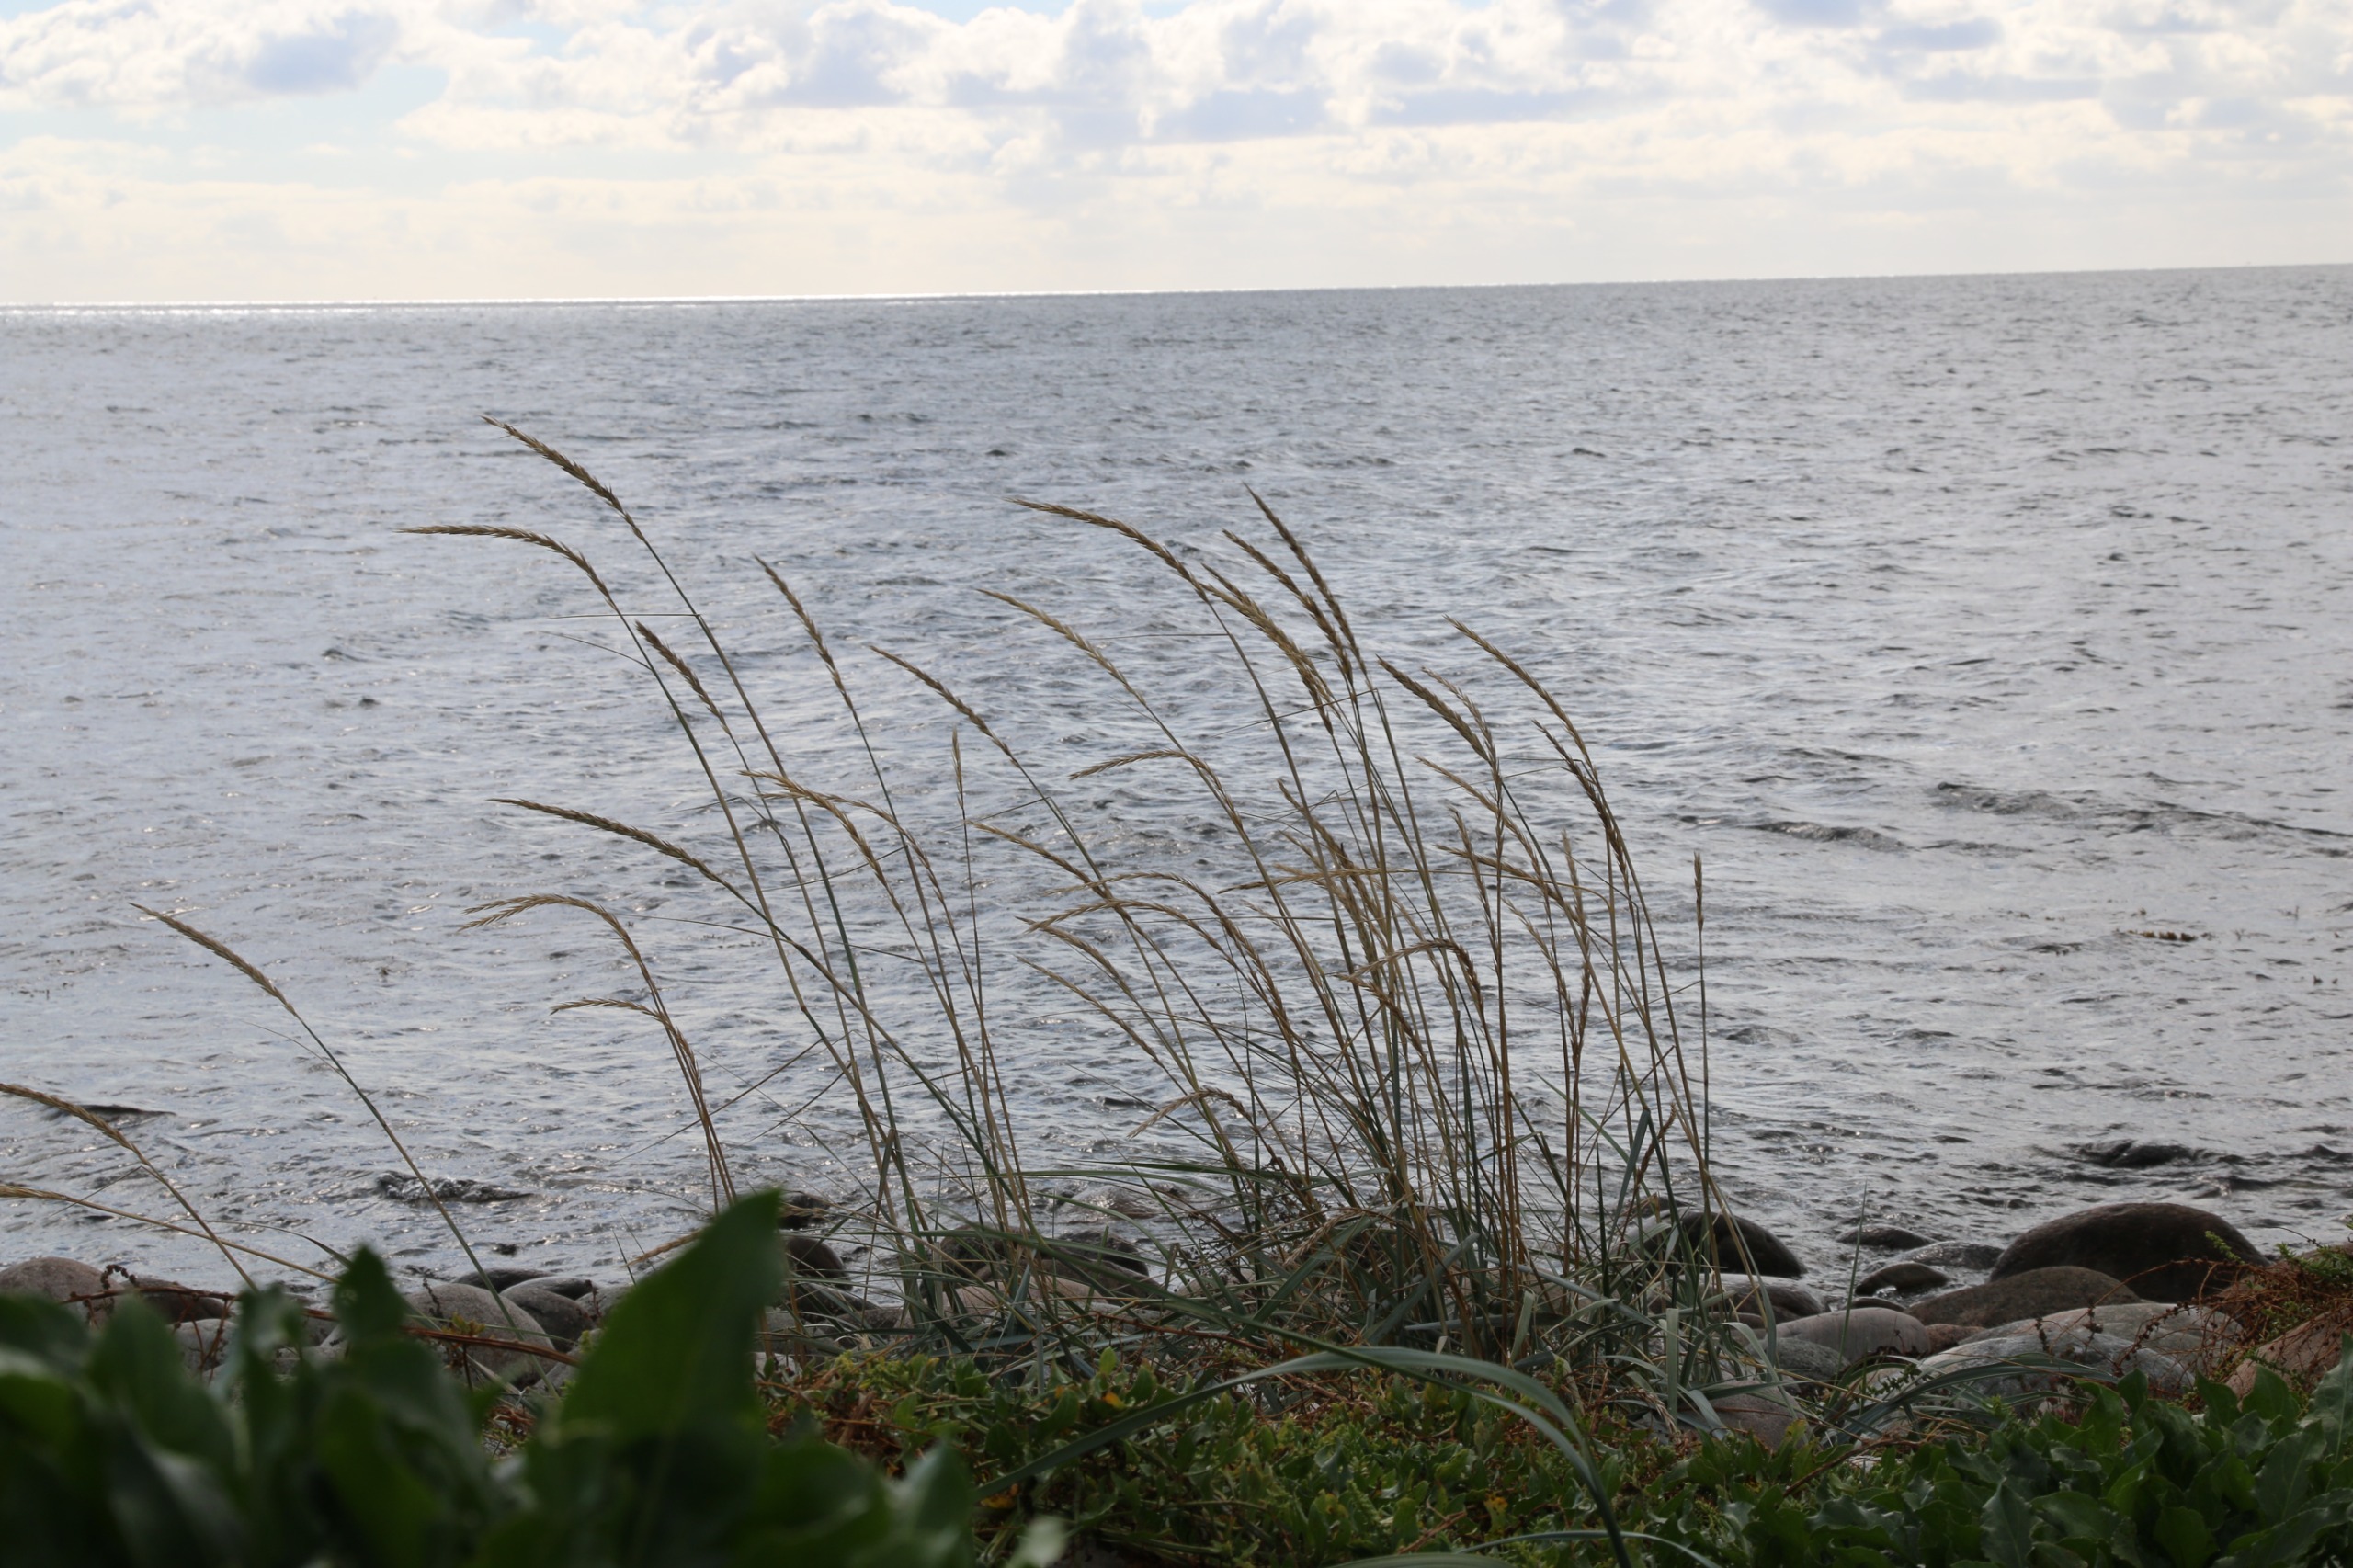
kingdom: Plantae
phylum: Tracheophyta
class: Liliopsida
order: Poales
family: Poaceae
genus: Leymus
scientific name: Leymus arenarius
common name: Marehalm
